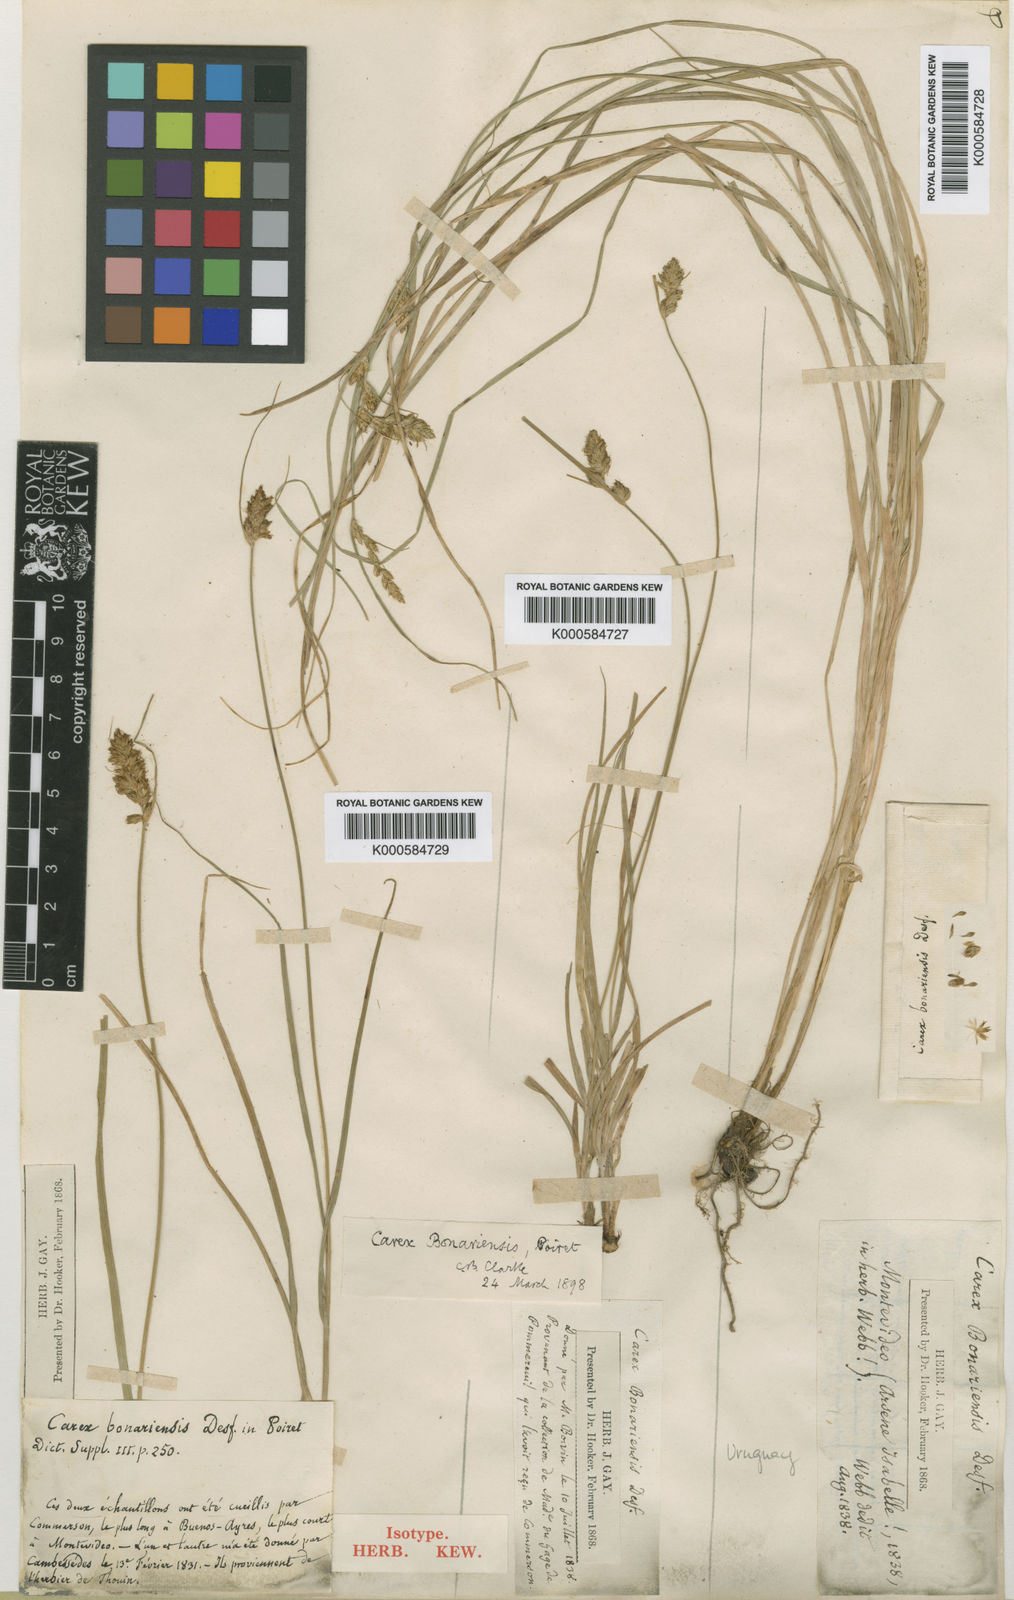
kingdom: Plantae
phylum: Tracheophyta
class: Liliopsida
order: Poales
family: Cyperaceae
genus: Carex
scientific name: Carex bonariensis
